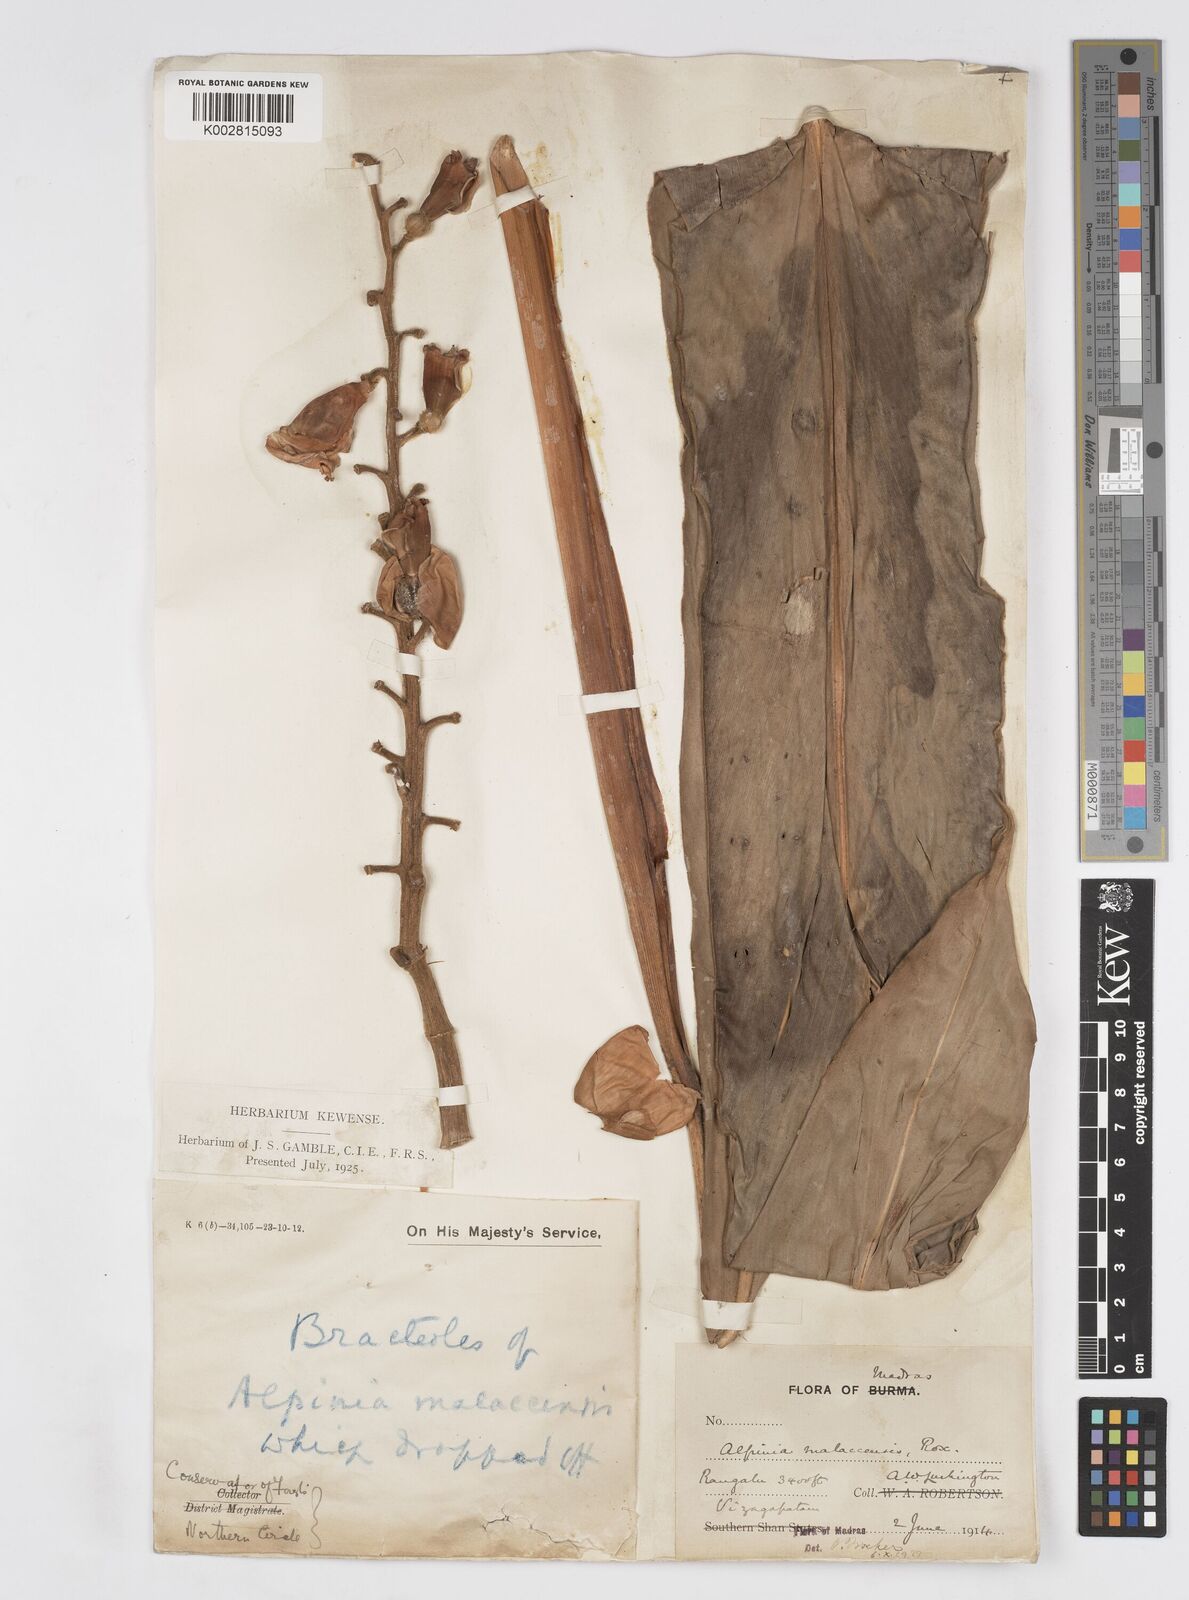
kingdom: Plantae
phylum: Tracheophyta
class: Liliopsida
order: Zingiberales
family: Zingiberaceae
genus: Alpinia
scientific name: Alpinia malaccensis
